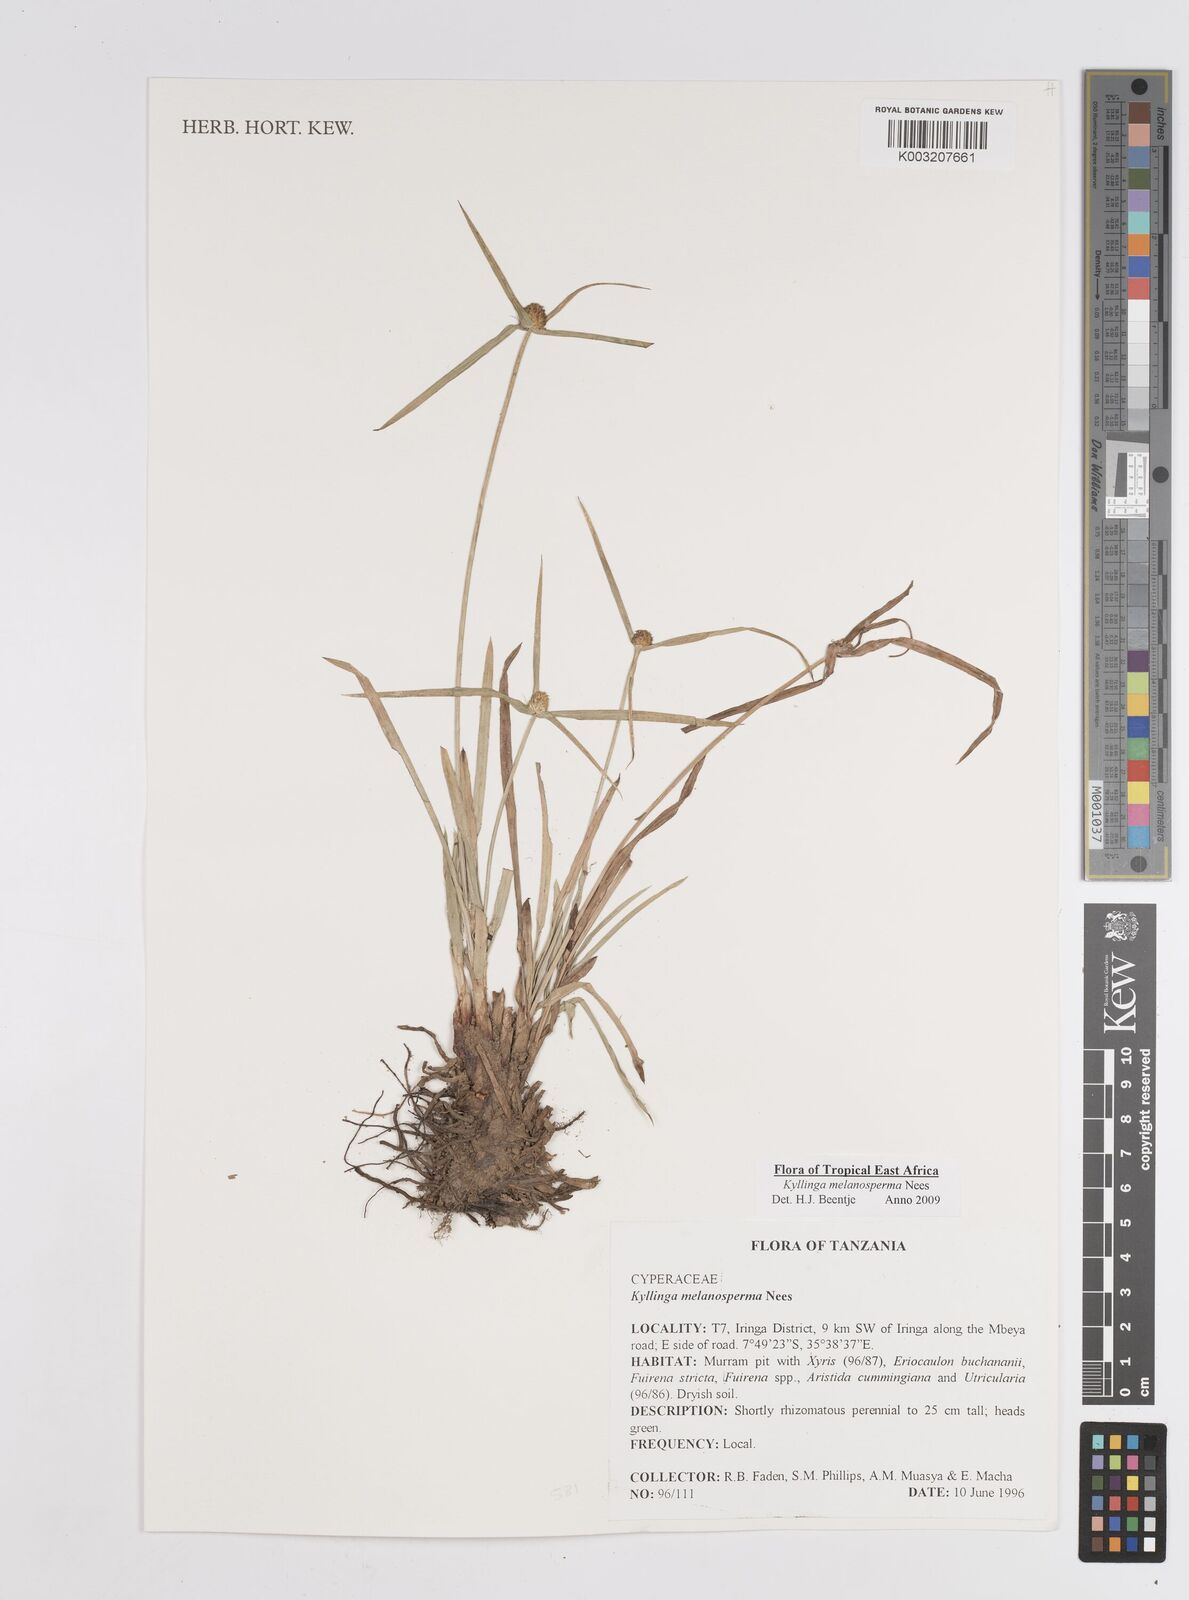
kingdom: Plantae
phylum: Tracheophyta
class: Liliopsida
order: Poales
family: Cyperaceae
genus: Cyperus
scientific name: Cyperus melanospermus
